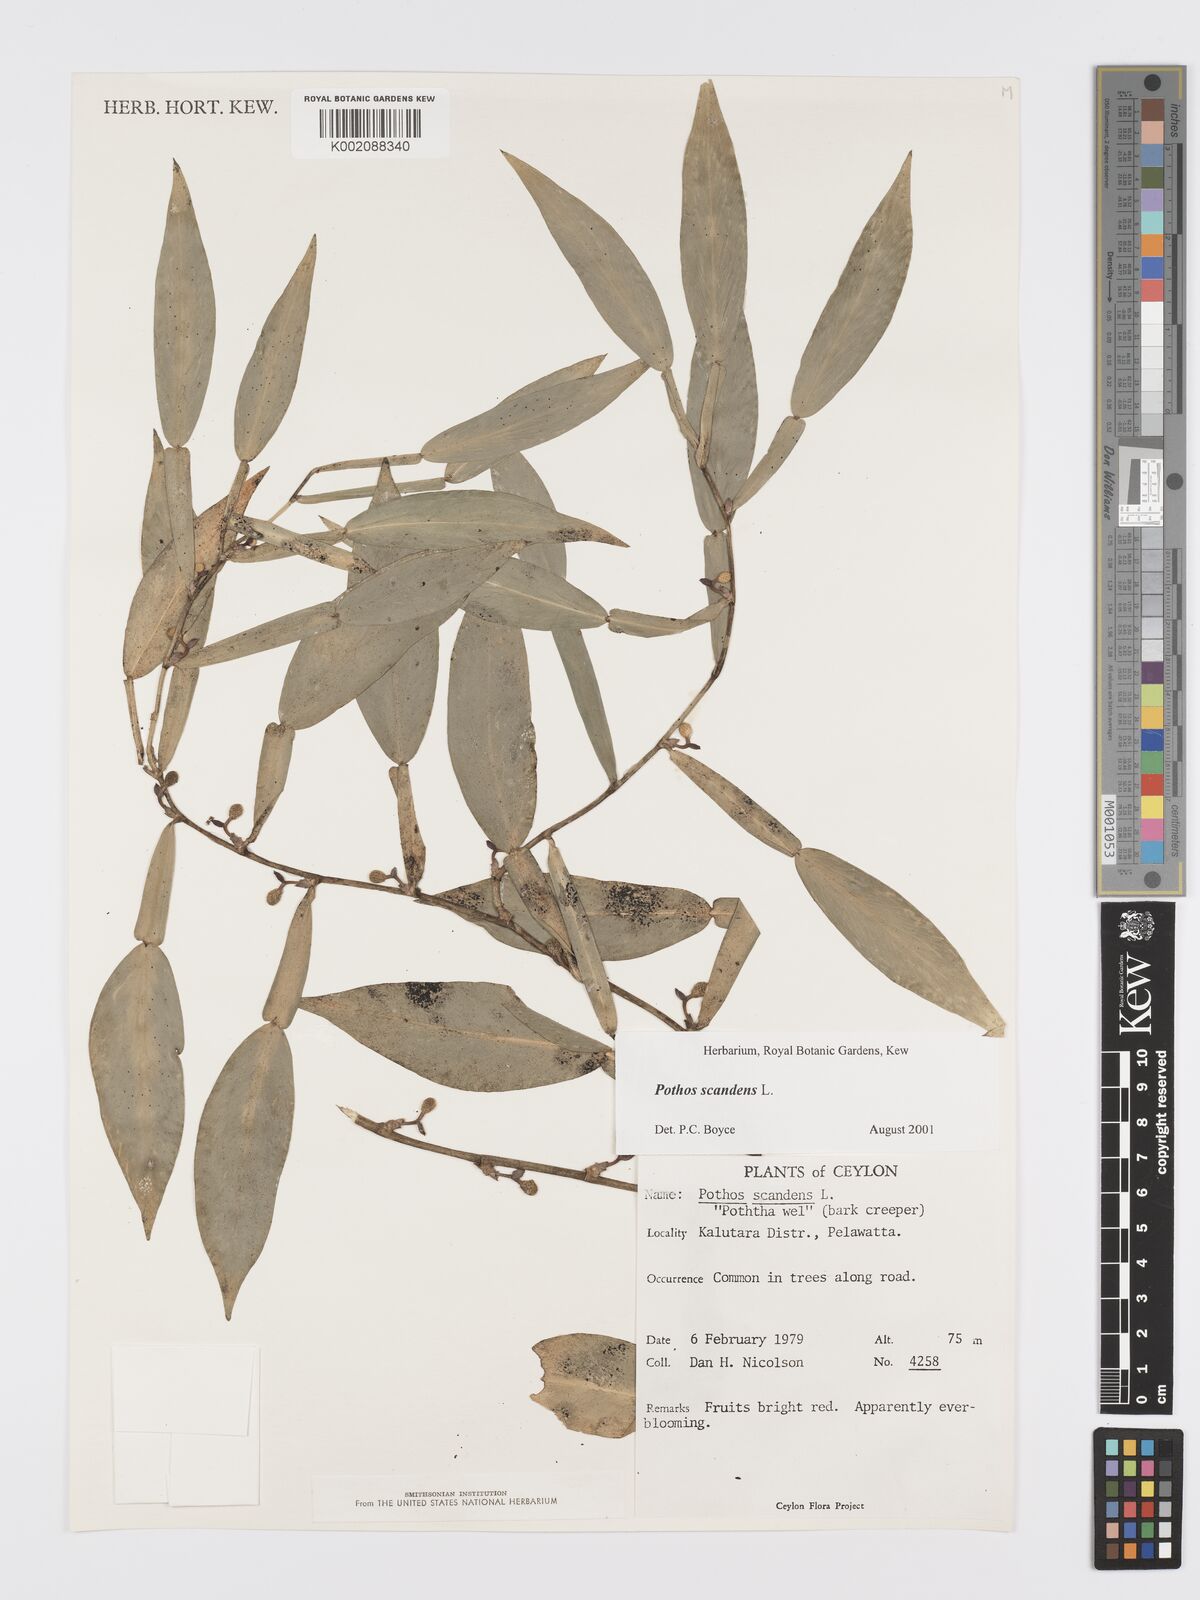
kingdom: Plantae
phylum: Tracheophyta
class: Liliopsida
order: Alismatales
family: Araceae
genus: Pothos
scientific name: Pothos scandens
